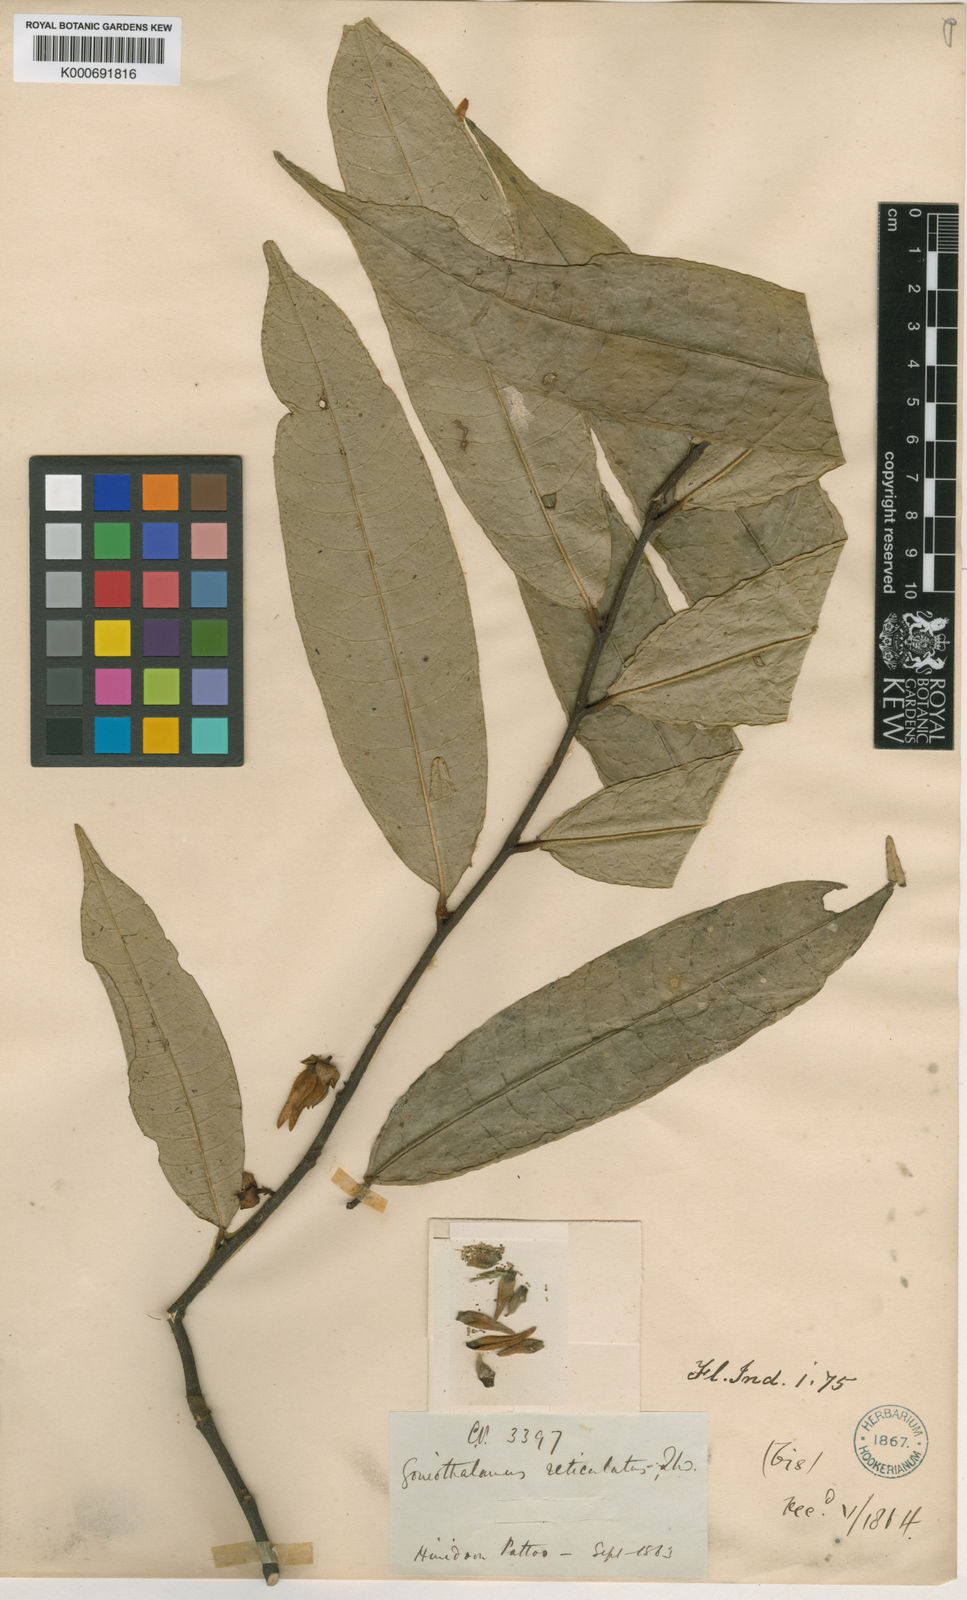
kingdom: Plantae
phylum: Tracheophyta
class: Magnoliopsida
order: Magnoliales
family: Annonaceae
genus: Goniothalamus
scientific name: Goniothalamus reticulatus
